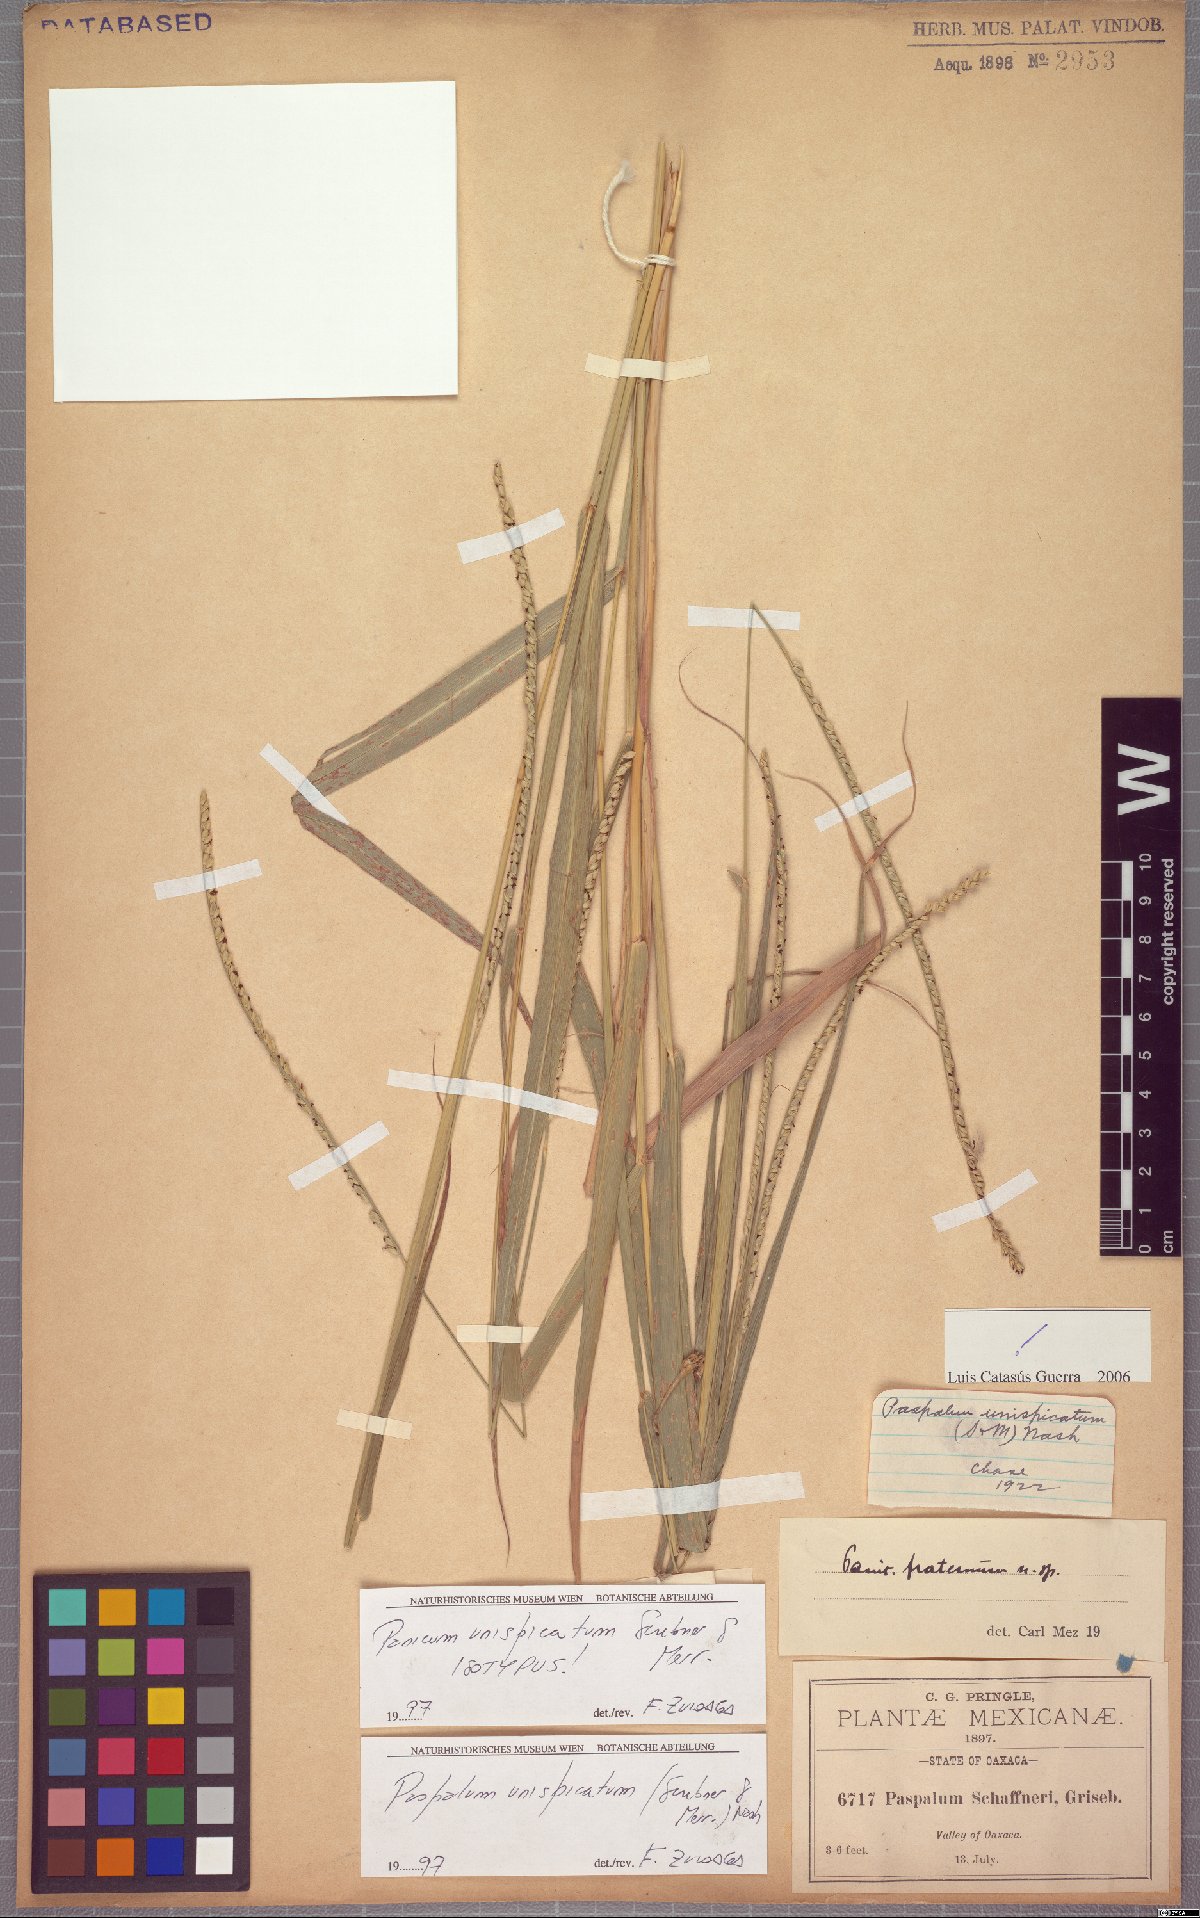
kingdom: Plantae
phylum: Tracheophyta
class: Liliopsida
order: Poales
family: Poaceae
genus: Paspalum
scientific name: Paspalum unispicatum
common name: Onespike paspalum
